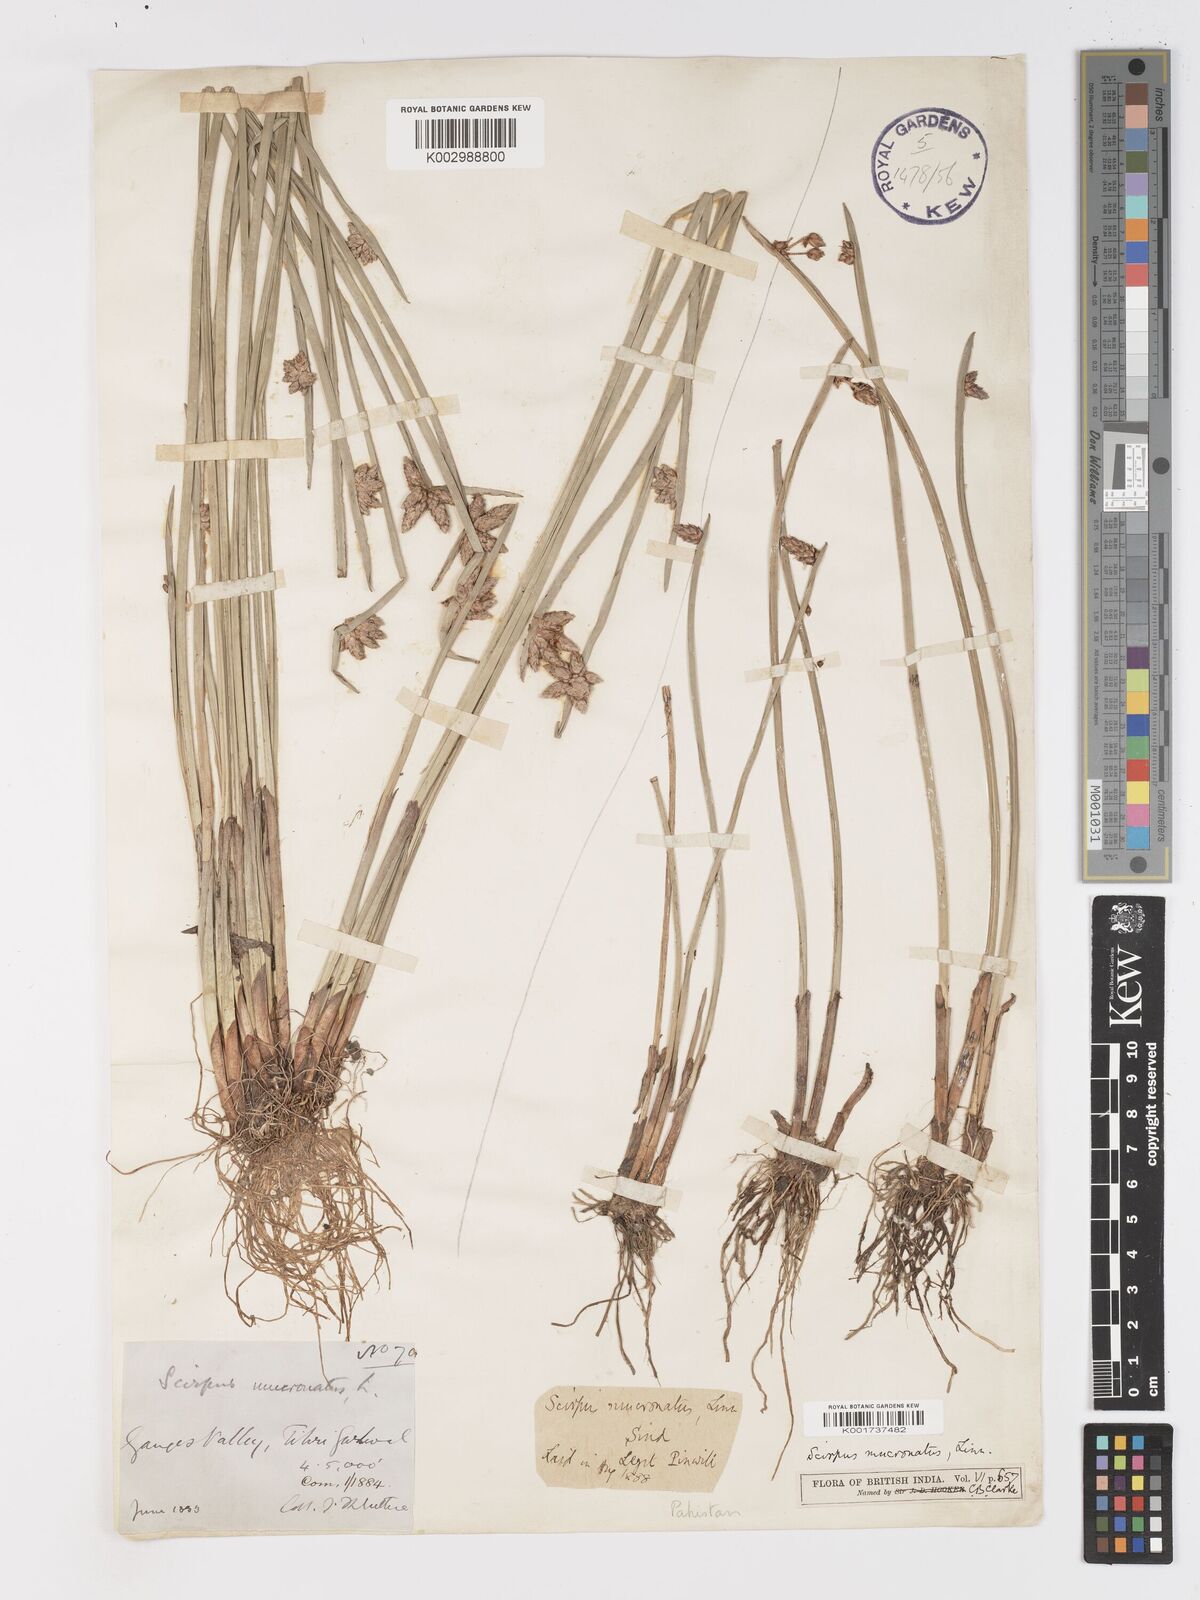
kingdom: Plantae
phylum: Tracheophyta
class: Liliopsida
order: Poales
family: Cyperaceae
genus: Schoenoplectiella
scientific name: Schoenoplectiella mucronata
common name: Bog bulrush
